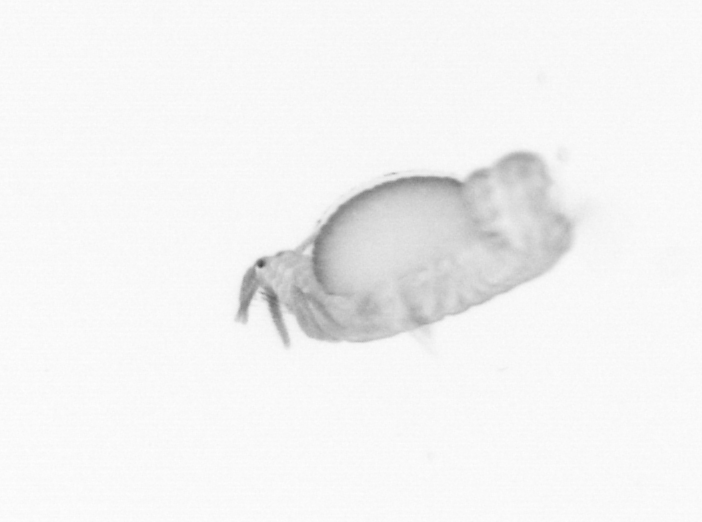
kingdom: Animalia
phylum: Annelida
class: Polychaeta
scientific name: Polychaeta
